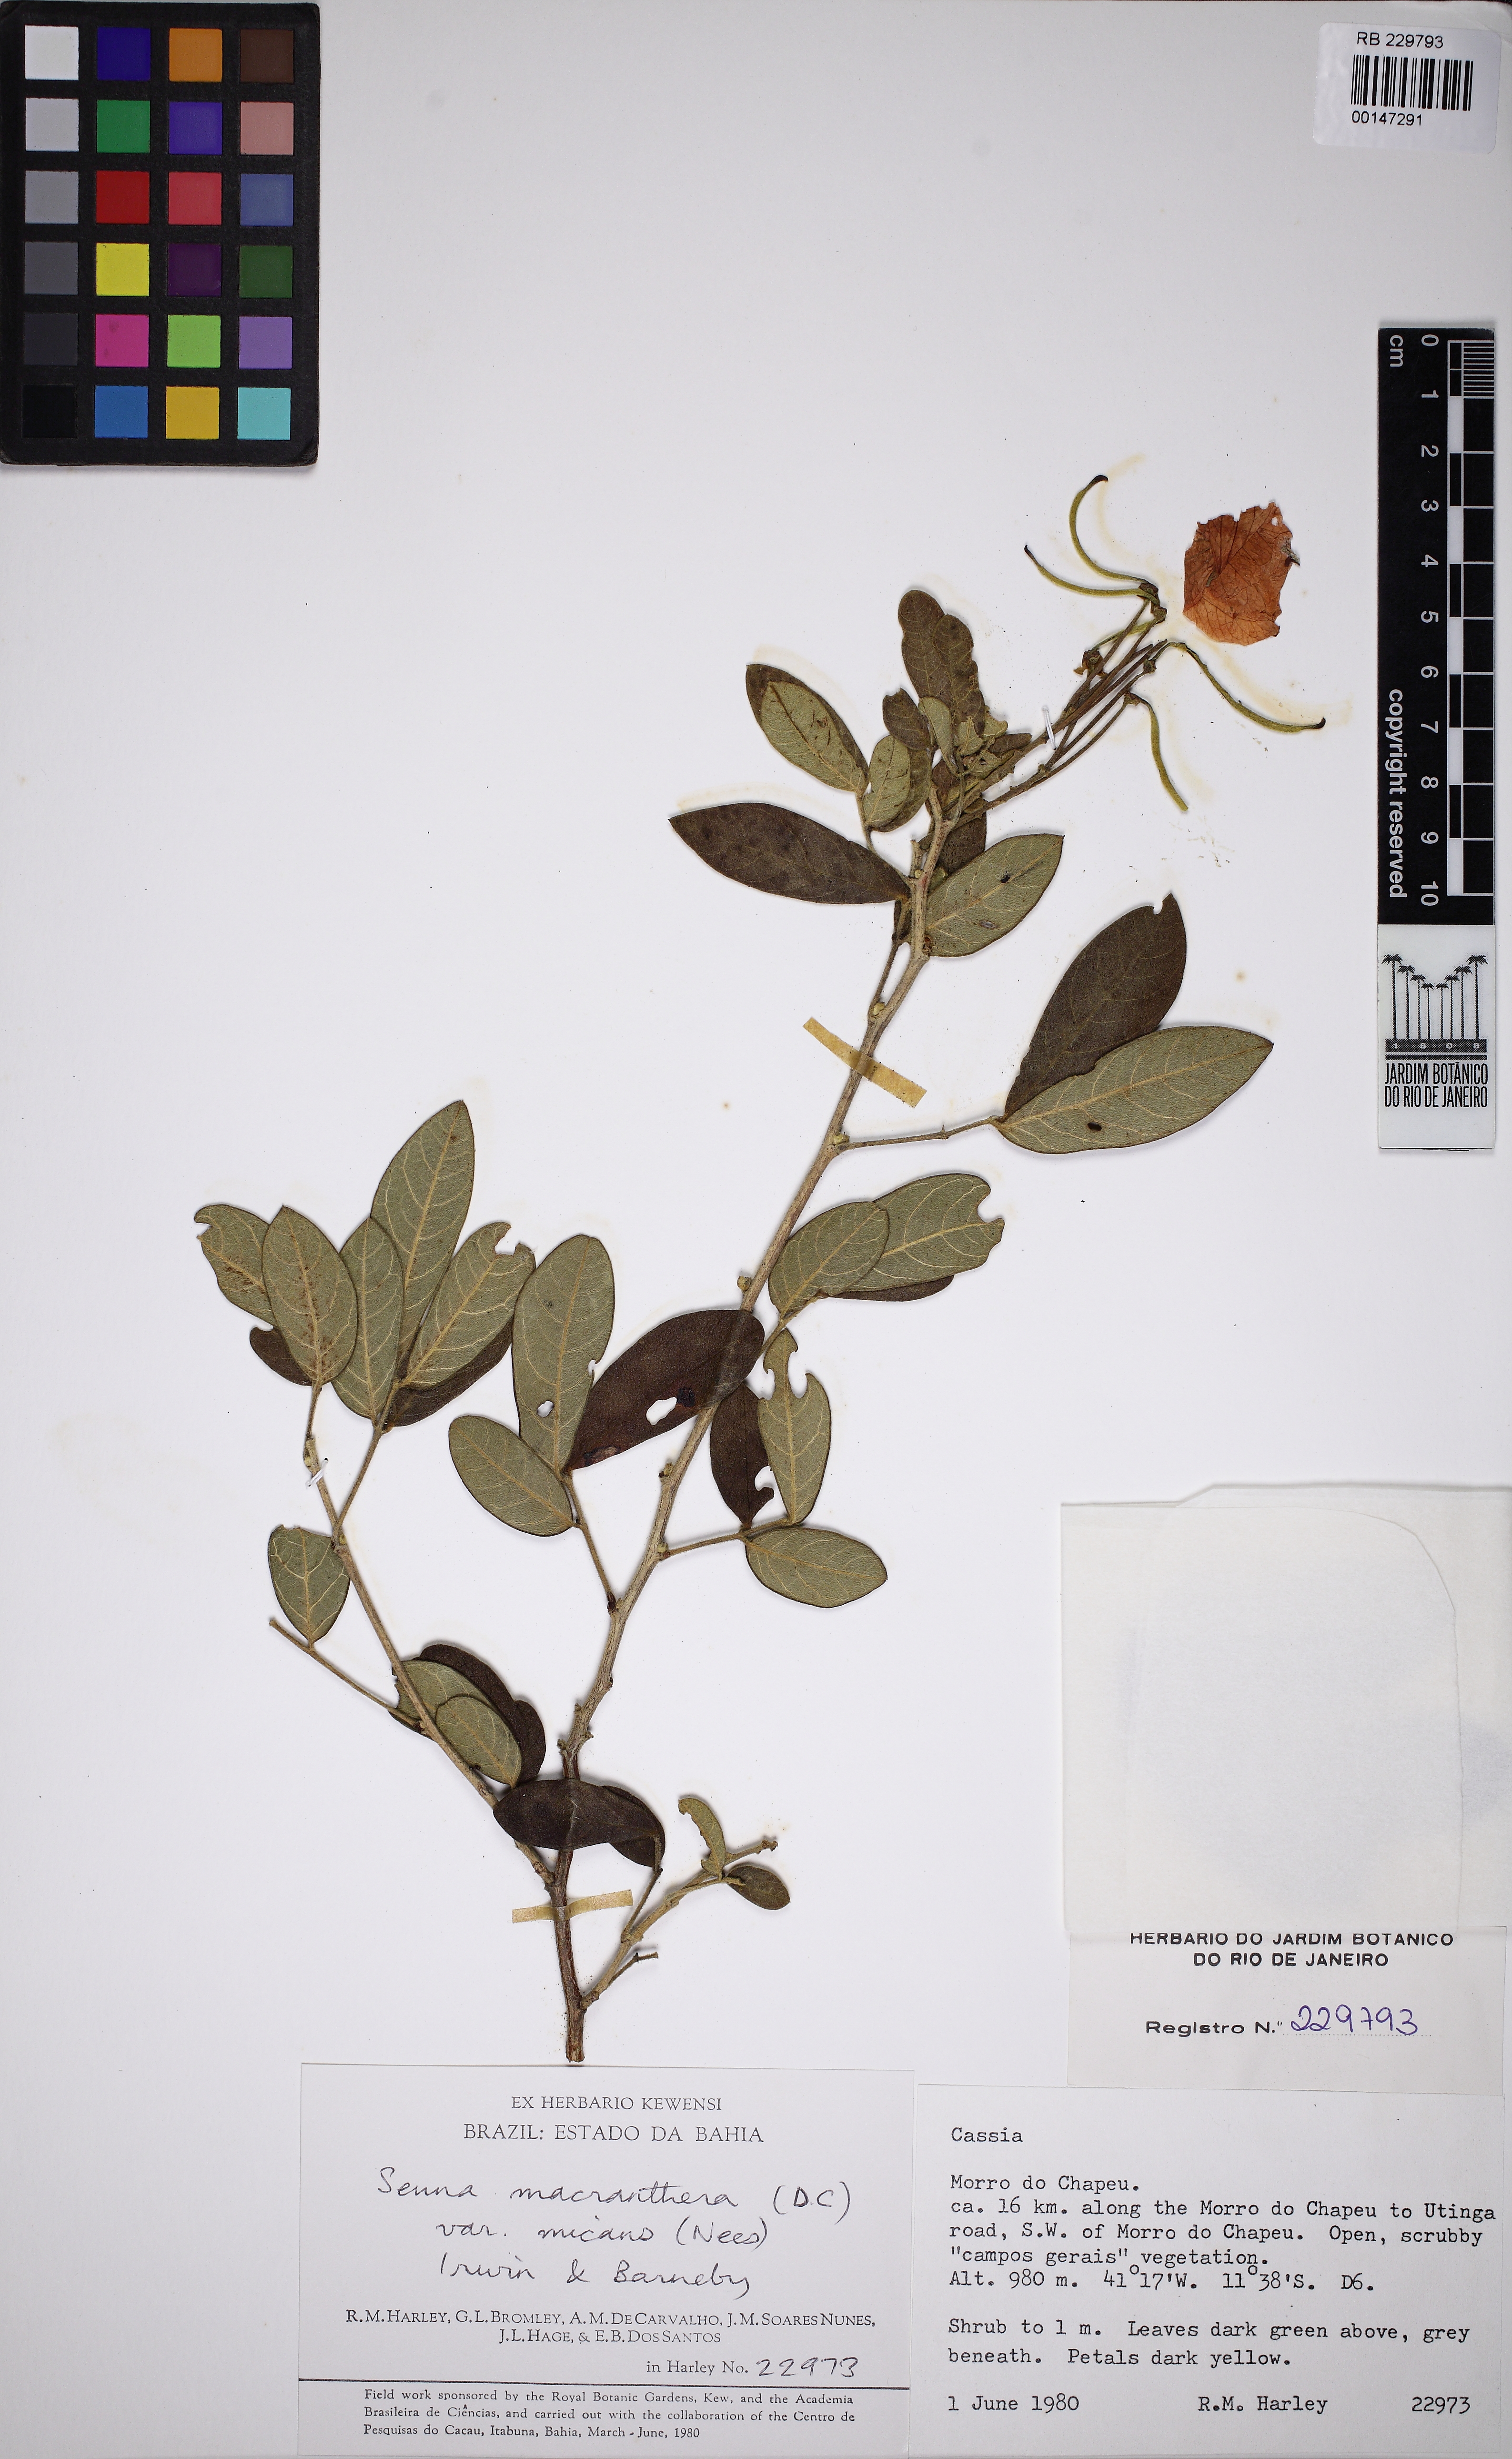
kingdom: Plantae
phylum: Tracheophyta
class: Magnoliopsida
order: Fabales
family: Fabaceae
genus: Senna
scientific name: Senna macranthera
